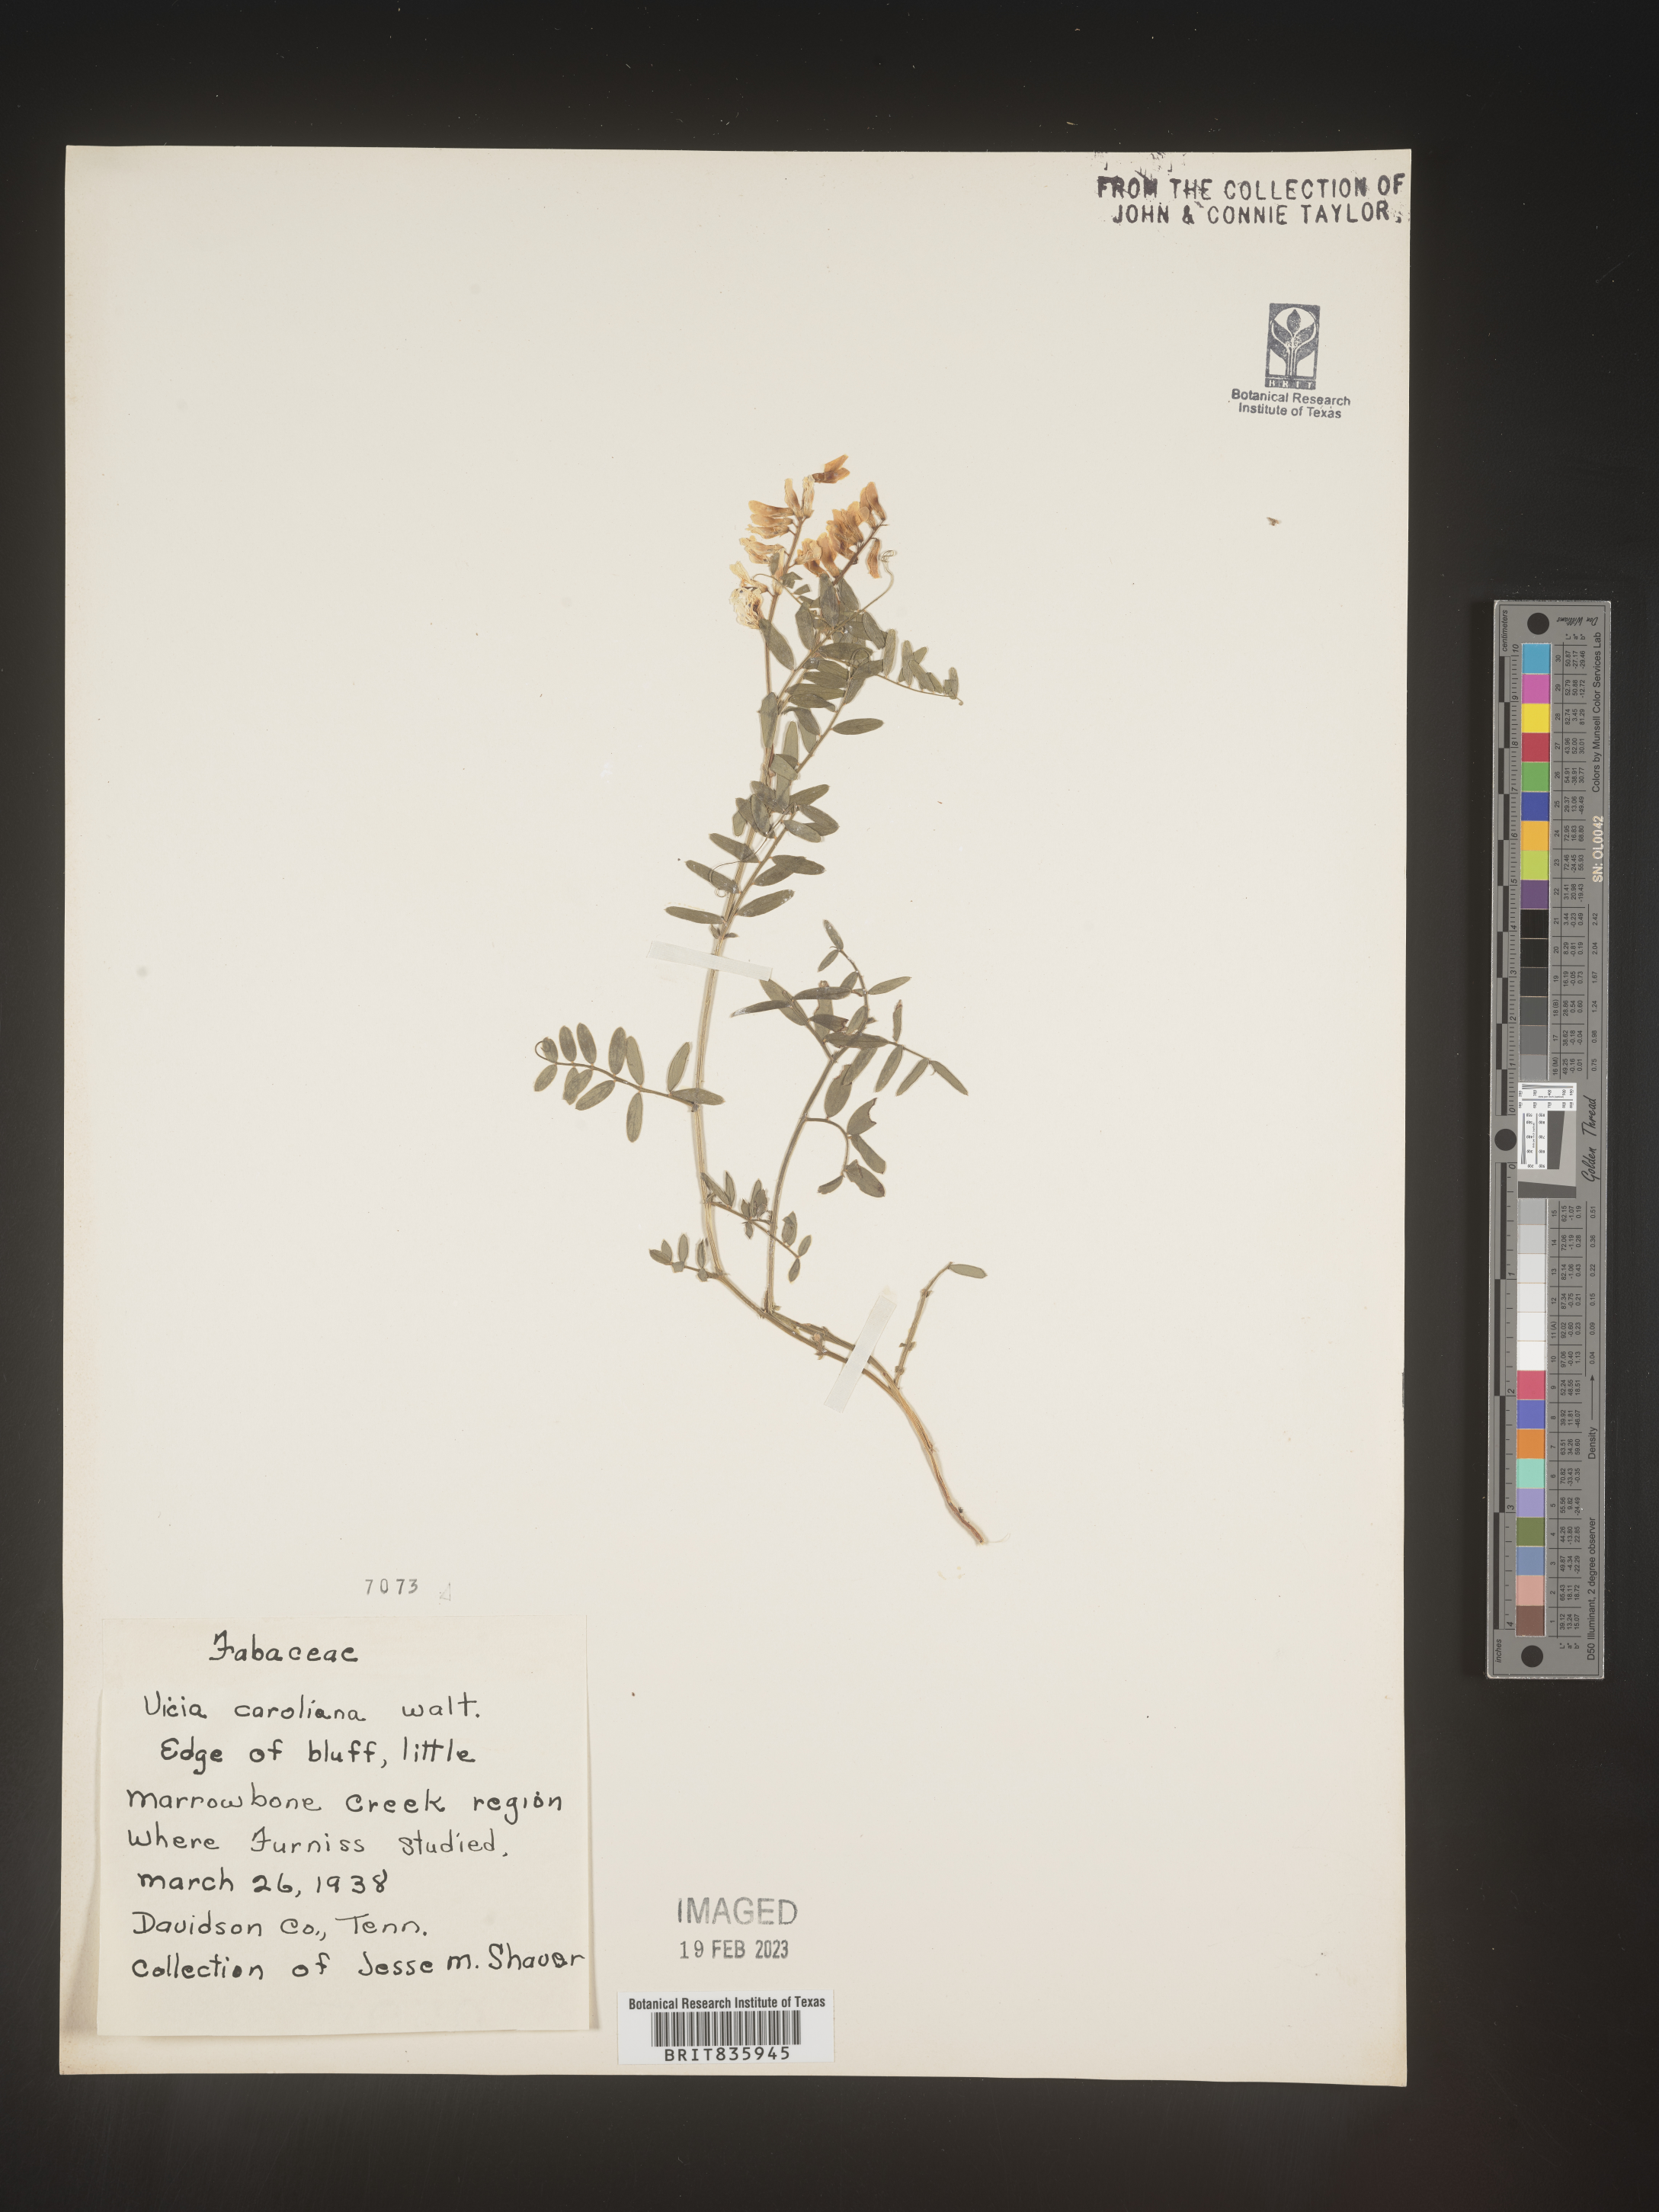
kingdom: Plantae
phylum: Tracheophyta
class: Magnoliopsida
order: Fabales
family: Fabaceae
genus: Vicia
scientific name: Vicia caroliniana
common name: Carolina vetch
